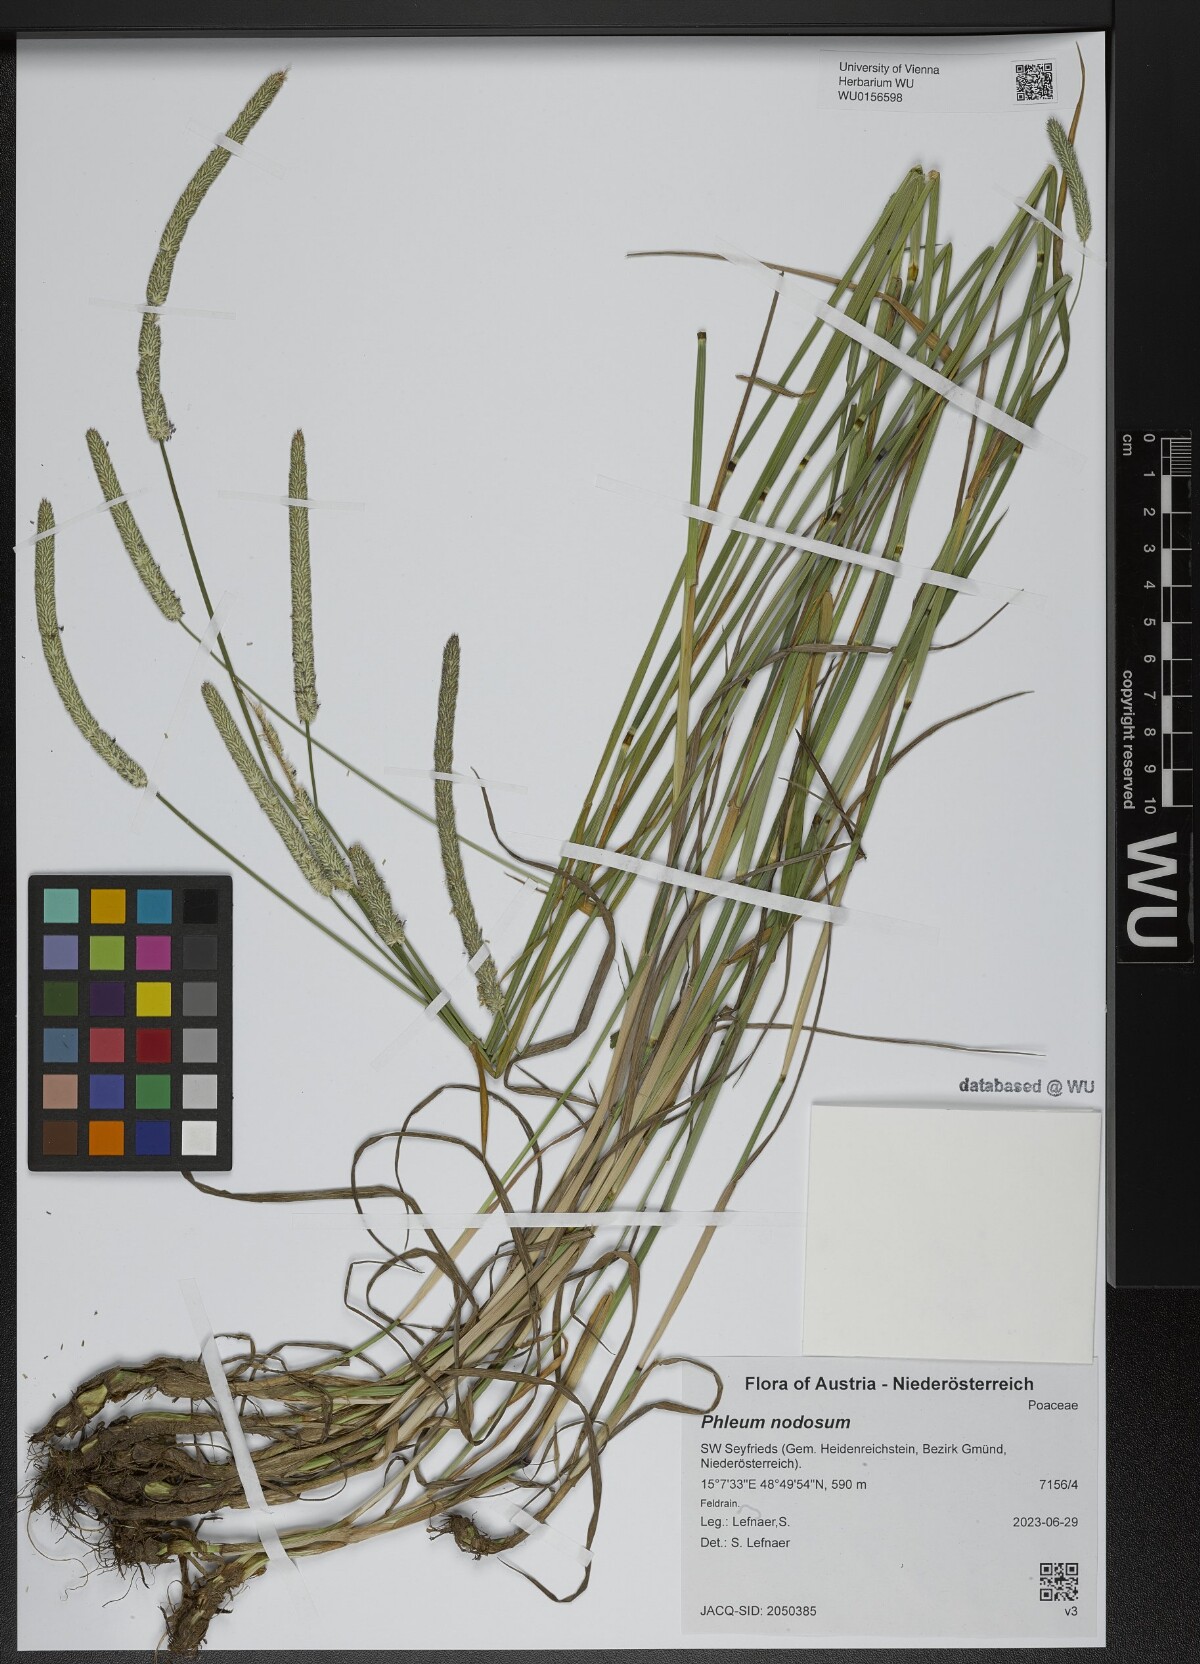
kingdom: Plantae
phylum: Tracheophyta
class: Liliopsida
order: Poales
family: Poaceae
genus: Phleum
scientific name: Phleum pratense
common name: Timothy grass
